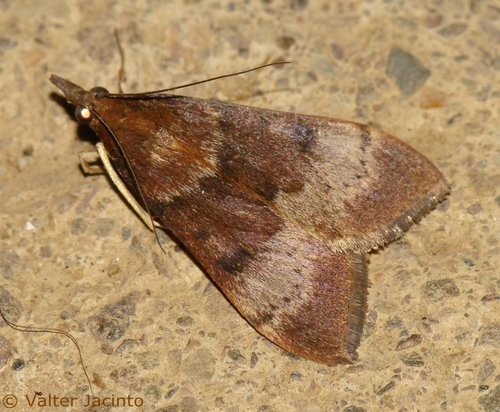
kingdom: Animalia
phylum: Arthropoda
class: Insecta
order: Lepidoptera
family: Crambidae
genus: Uresiphita
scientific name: Uresiphita gilvata
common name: Yellow-underwing pearl
